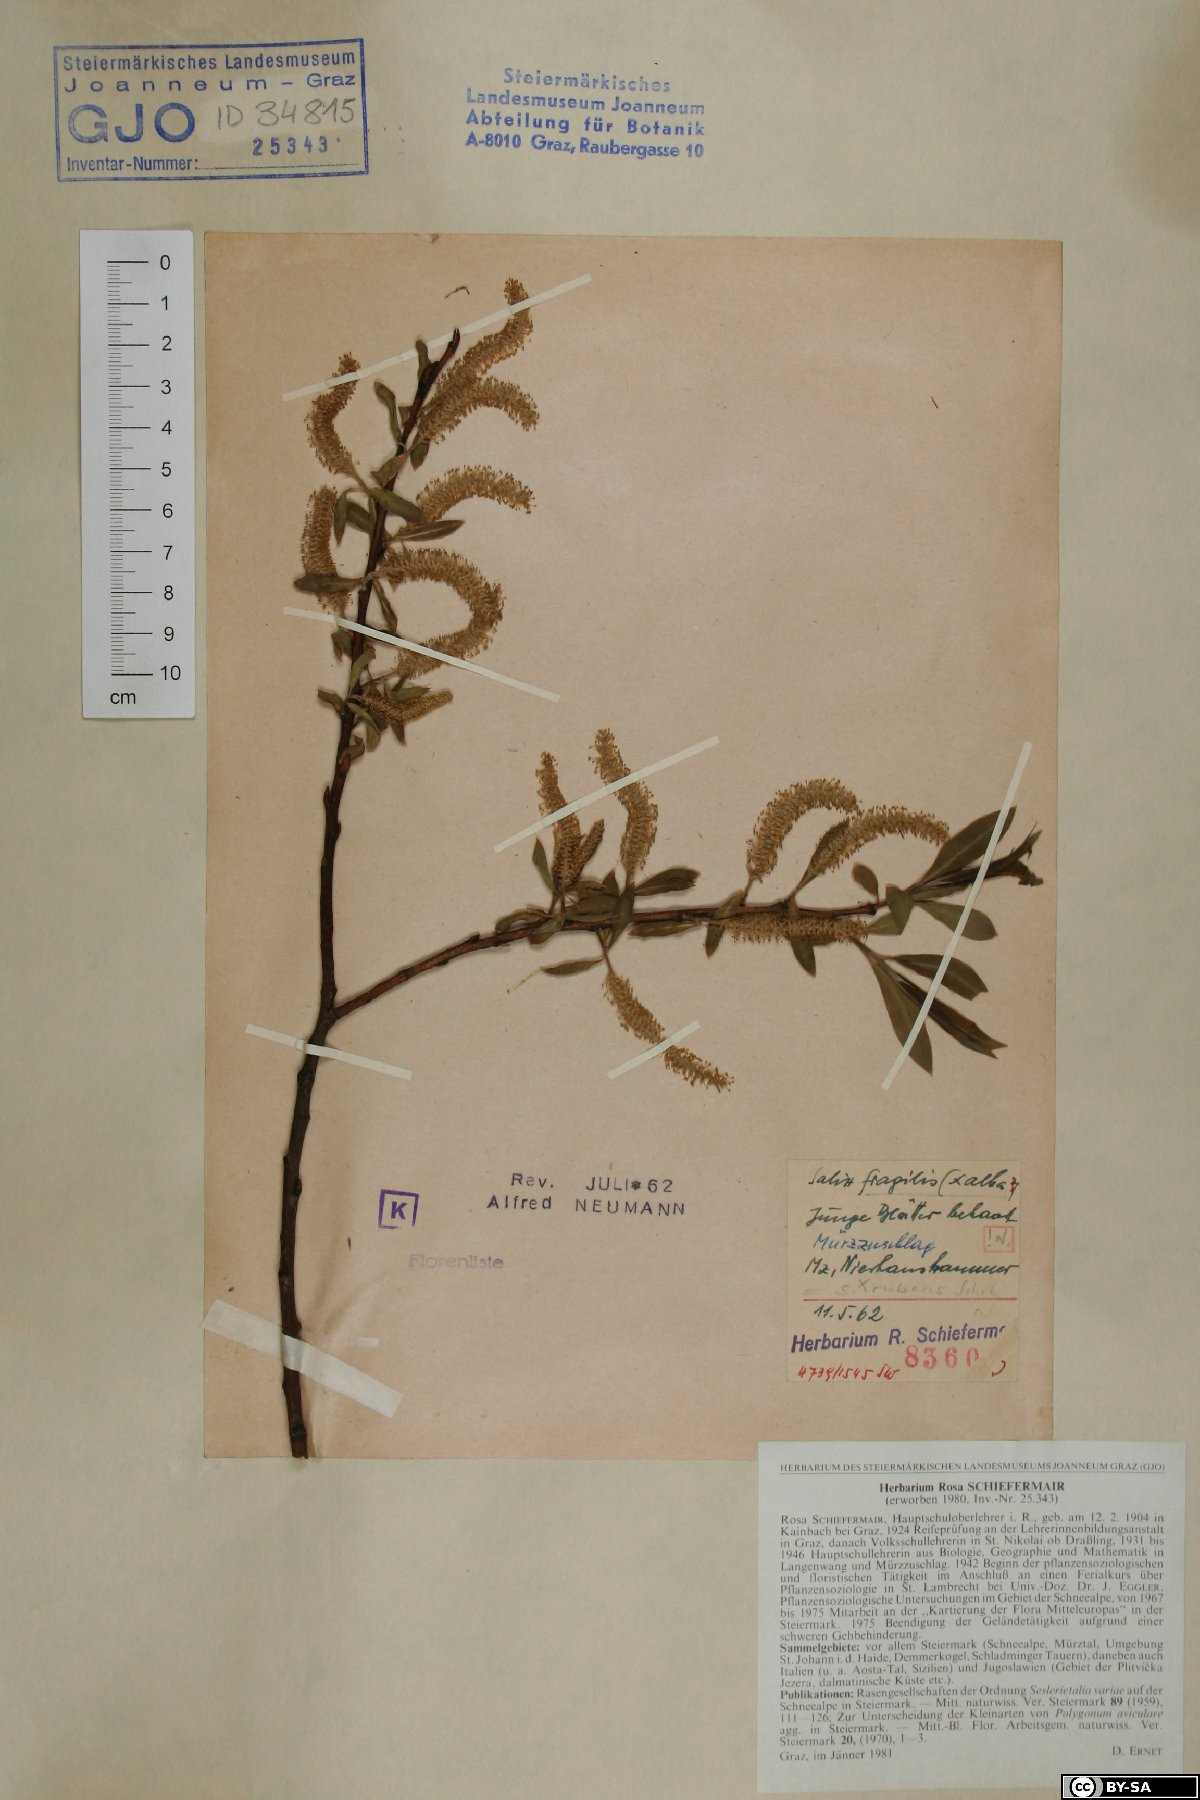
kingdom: Plantae
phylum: Tracheophyta
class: Magnoliopsida
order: Malpighiales
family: Salicaceae
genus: Salix
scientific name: Salix rubens
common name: Hybrid crack willow
